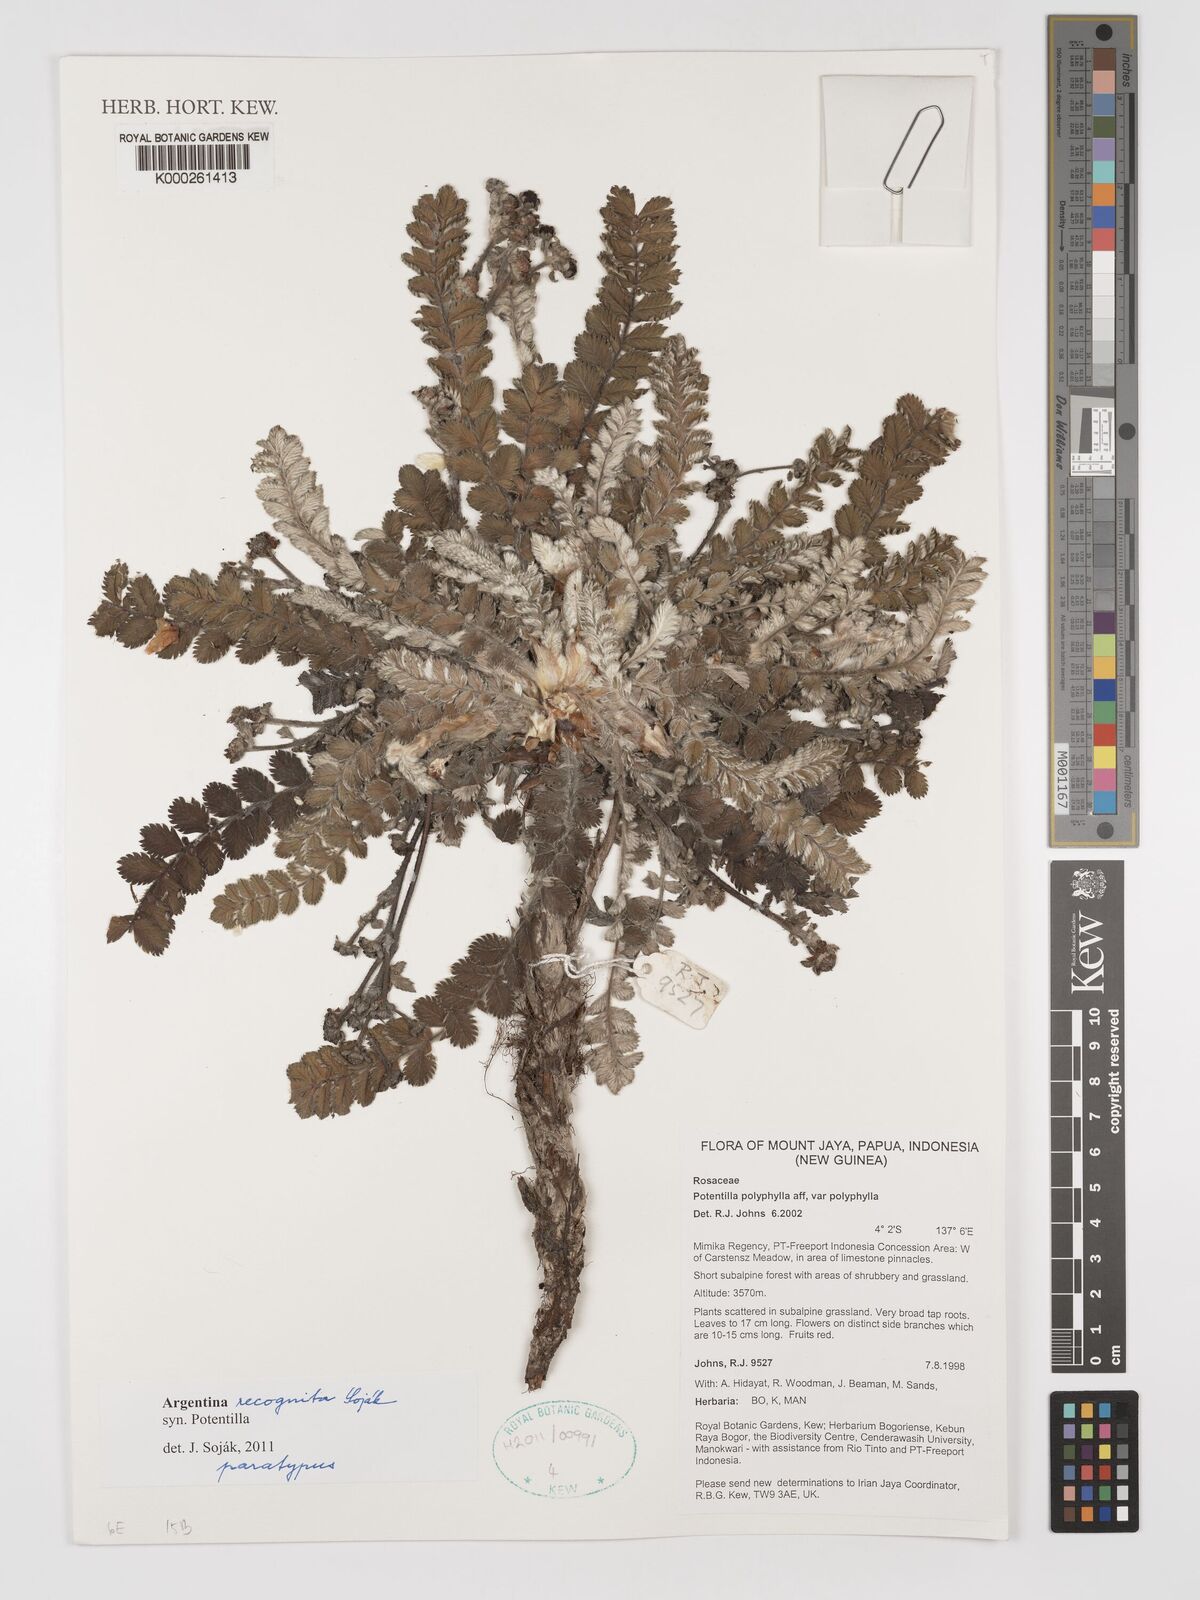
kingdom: Plantae
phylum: Tracheophyta
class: Magnoliopsida
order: Rosales
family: Rosaceae
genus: Potentilla
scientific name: Potentilla
